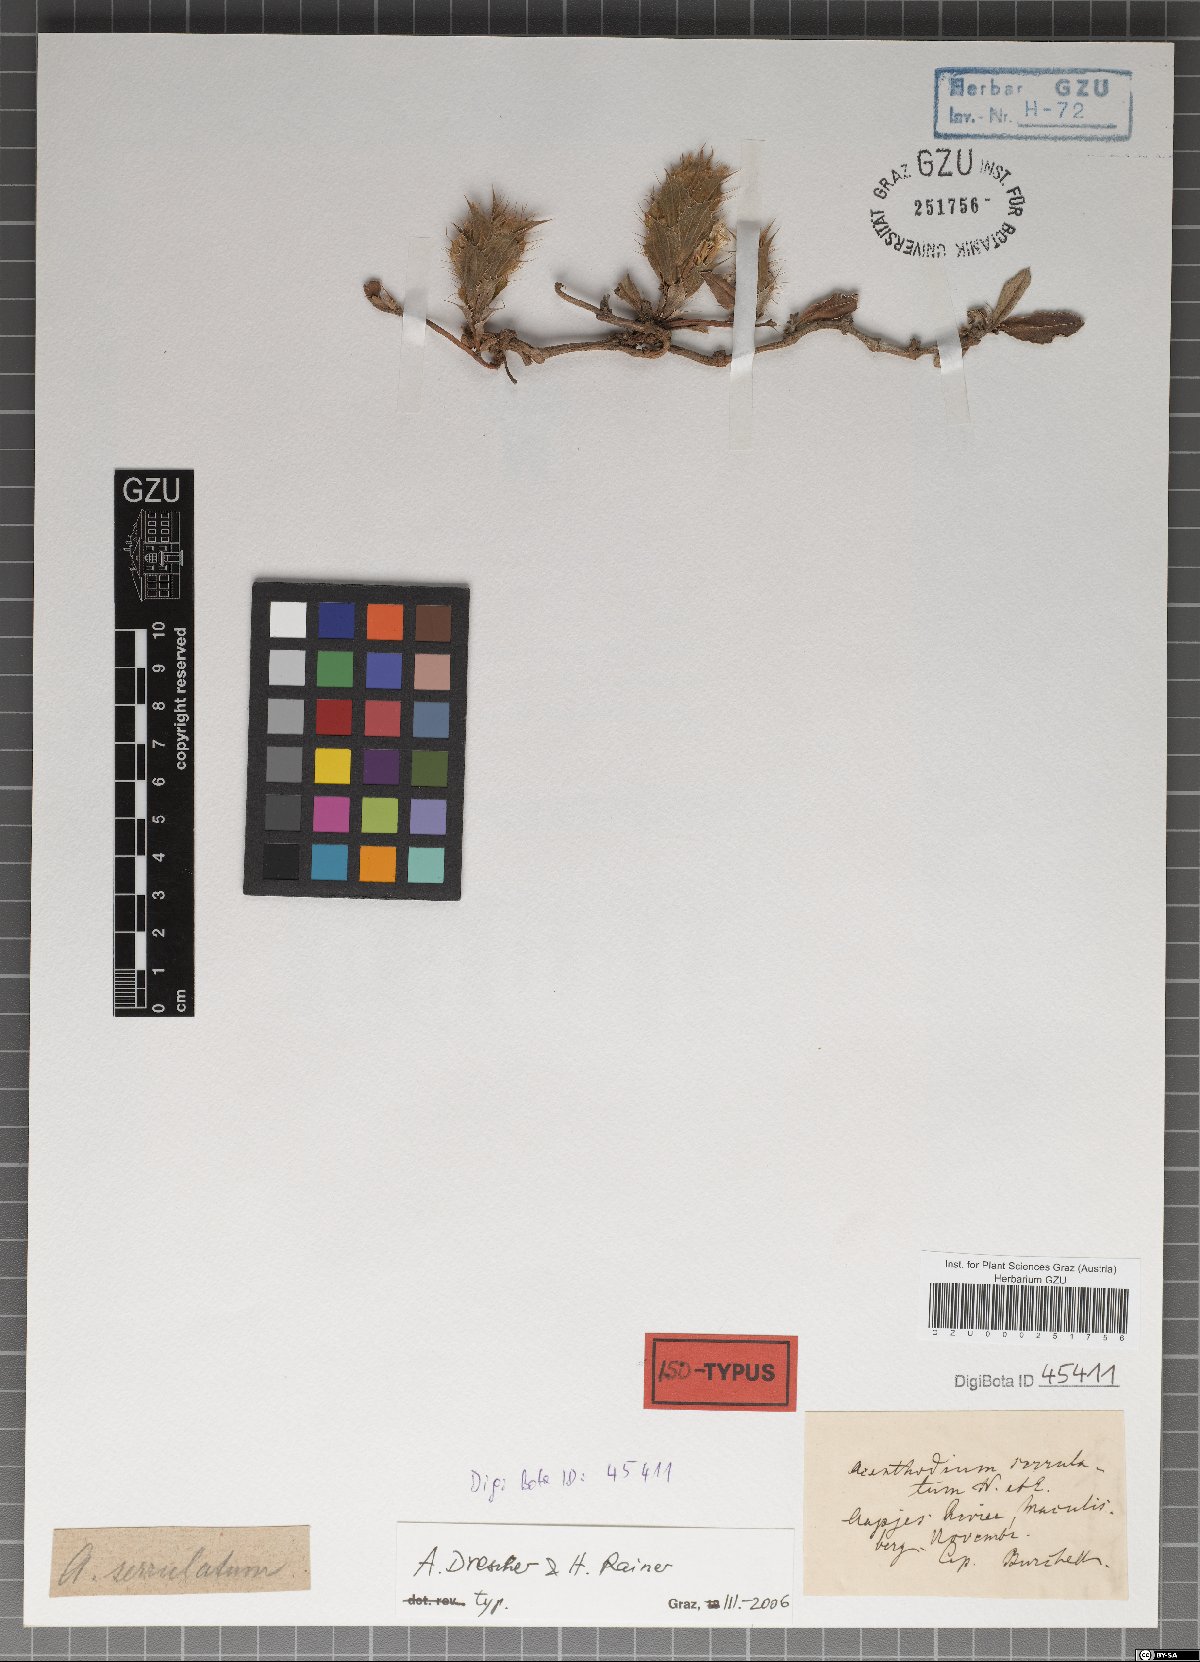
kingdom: Plantae
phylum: Tracheophyta
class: Magnoliopsida
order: Lamiales
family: Acanthaceae
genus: Blepharis
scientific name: Blepharis serrulata
